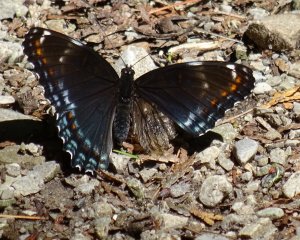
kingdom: Animalia
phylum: Arthropoda
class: Insecta
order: Lepidoptera
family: Nymphalidae
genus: Limenitis
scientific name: Limenitis astyanax
